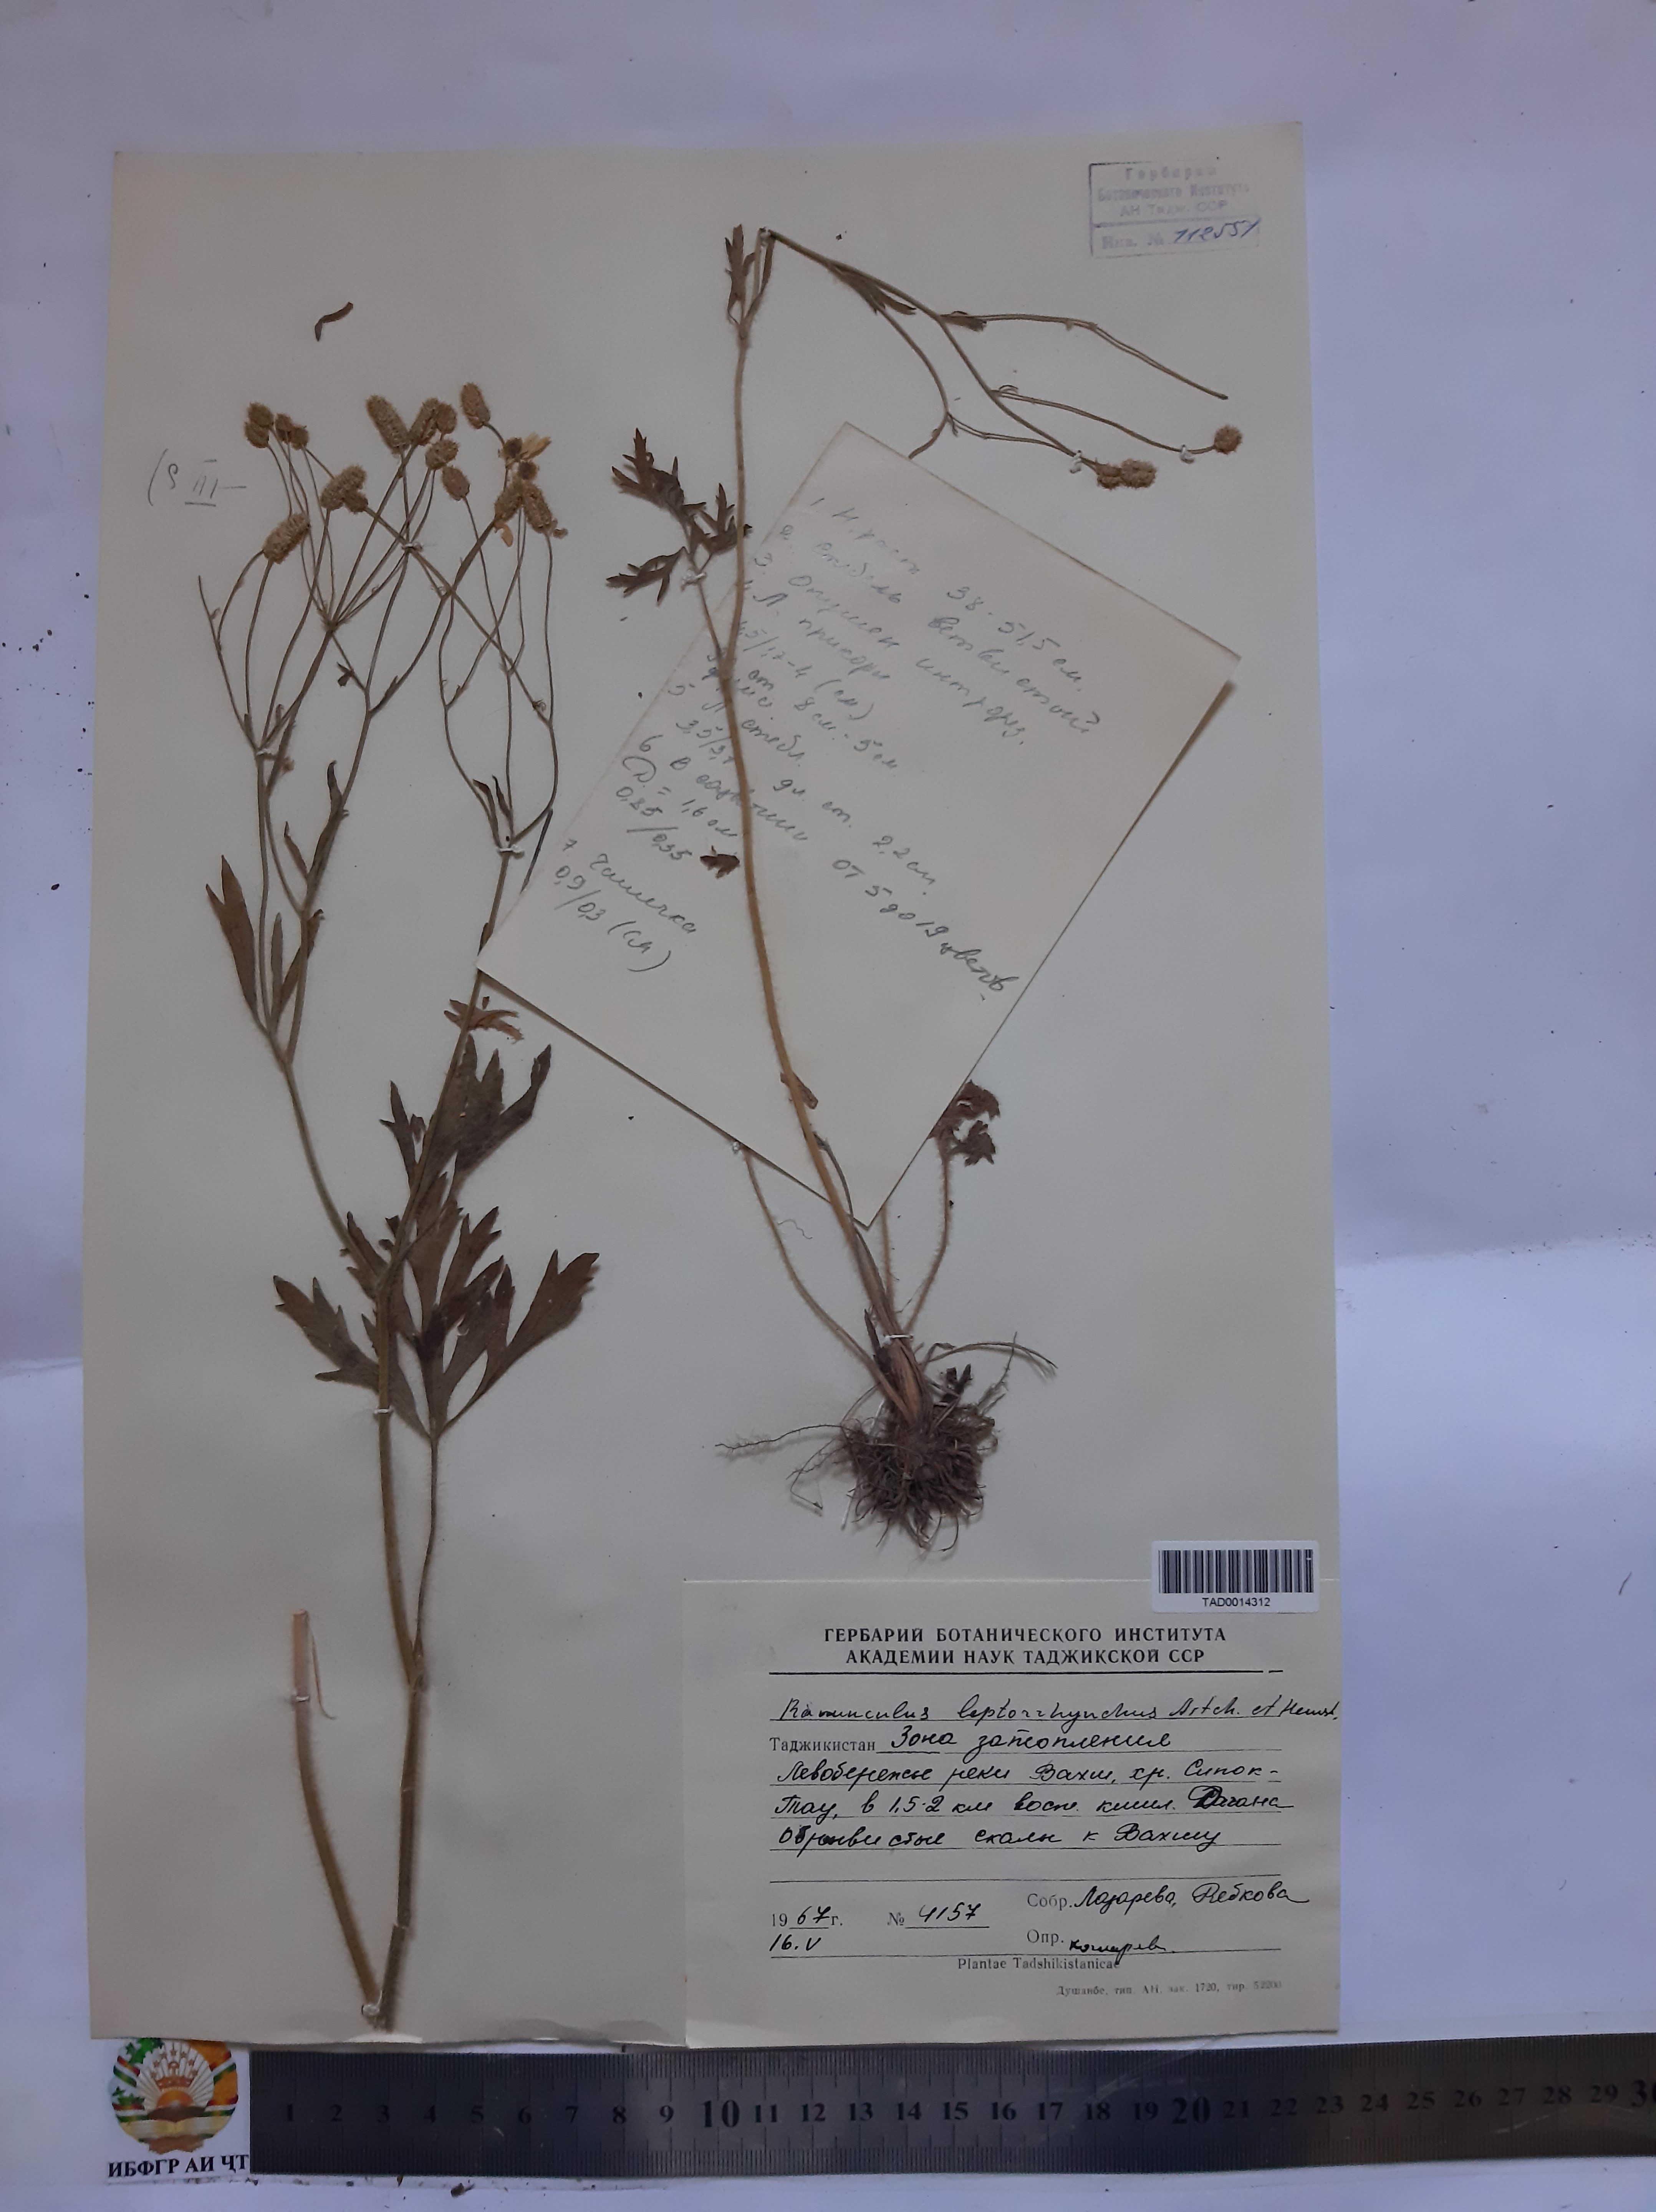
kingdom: Plantae
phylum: Tracheophyta
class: Magnoliopsida
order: Ranunculales
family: Ranunculaceae
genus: Ranunculus
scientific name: Ranunculus leptorrhynchus
